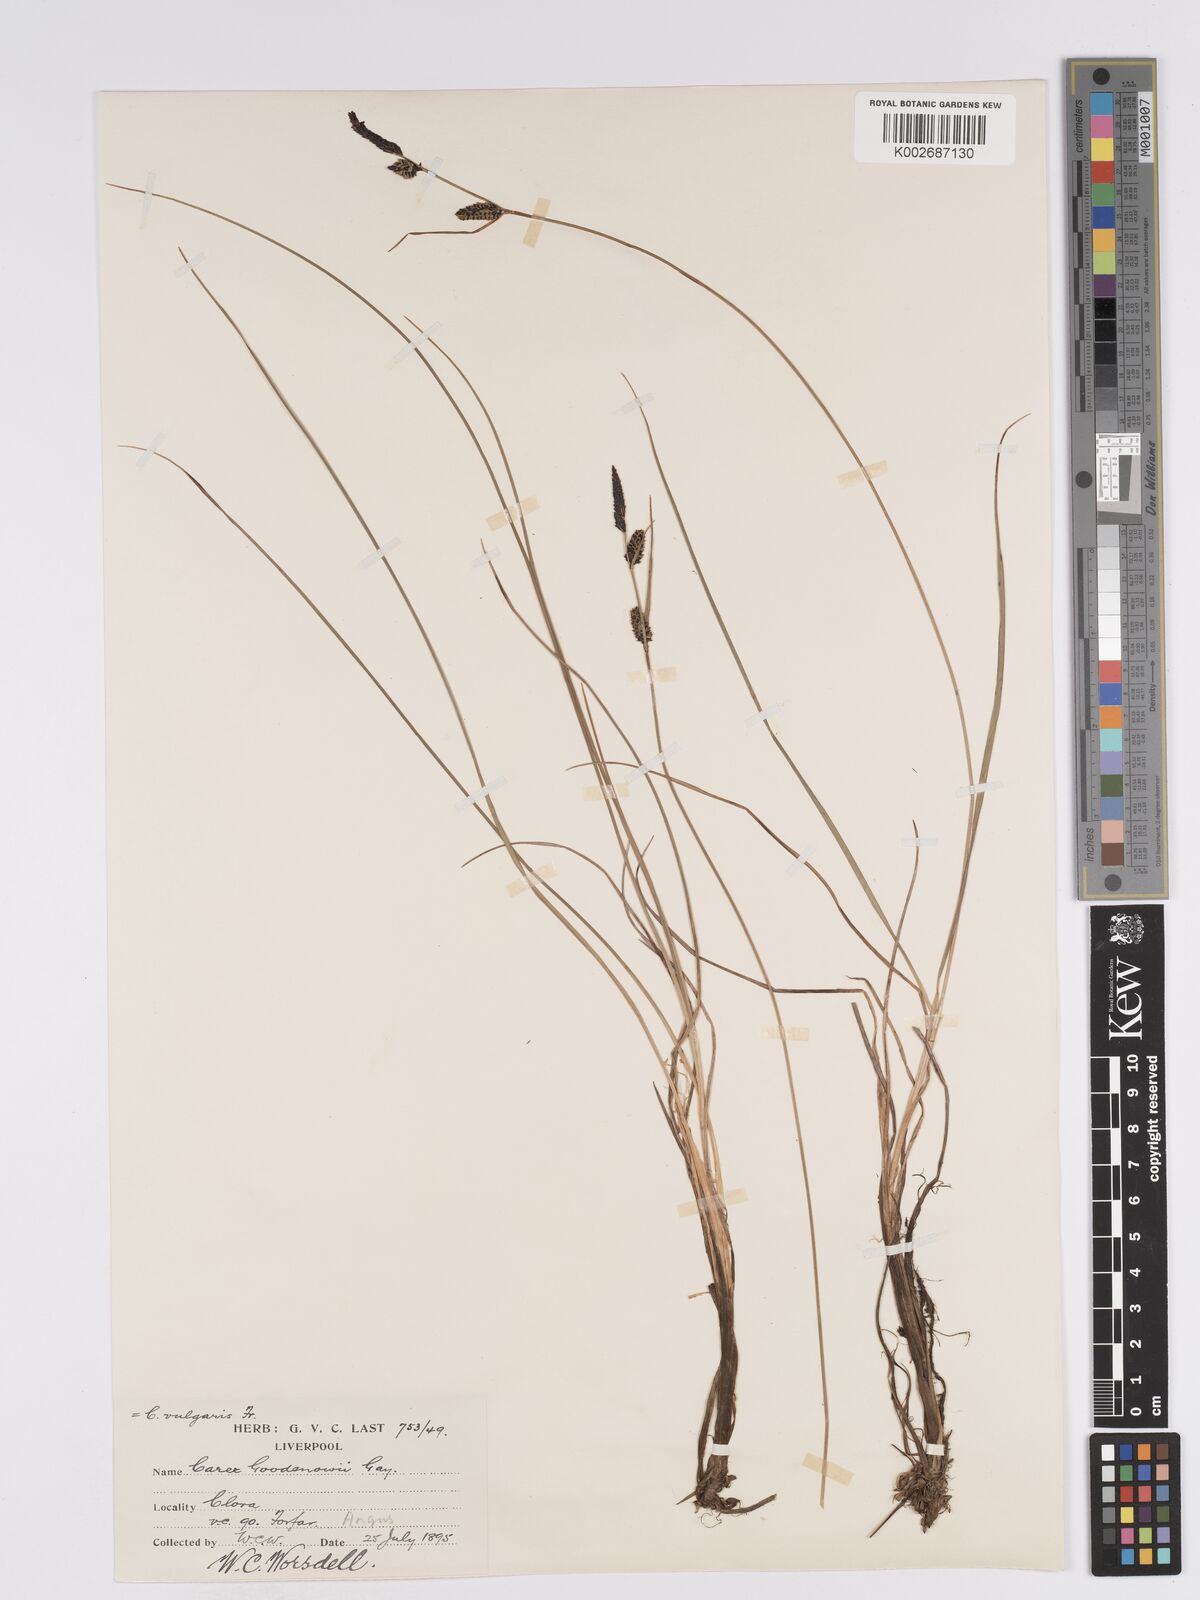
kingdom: Plantae
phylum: Tracheophyta
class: Liliopsida
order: Poales
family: Cyperaceae
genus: Carex
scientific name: Carex nigra
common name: Common sedge
